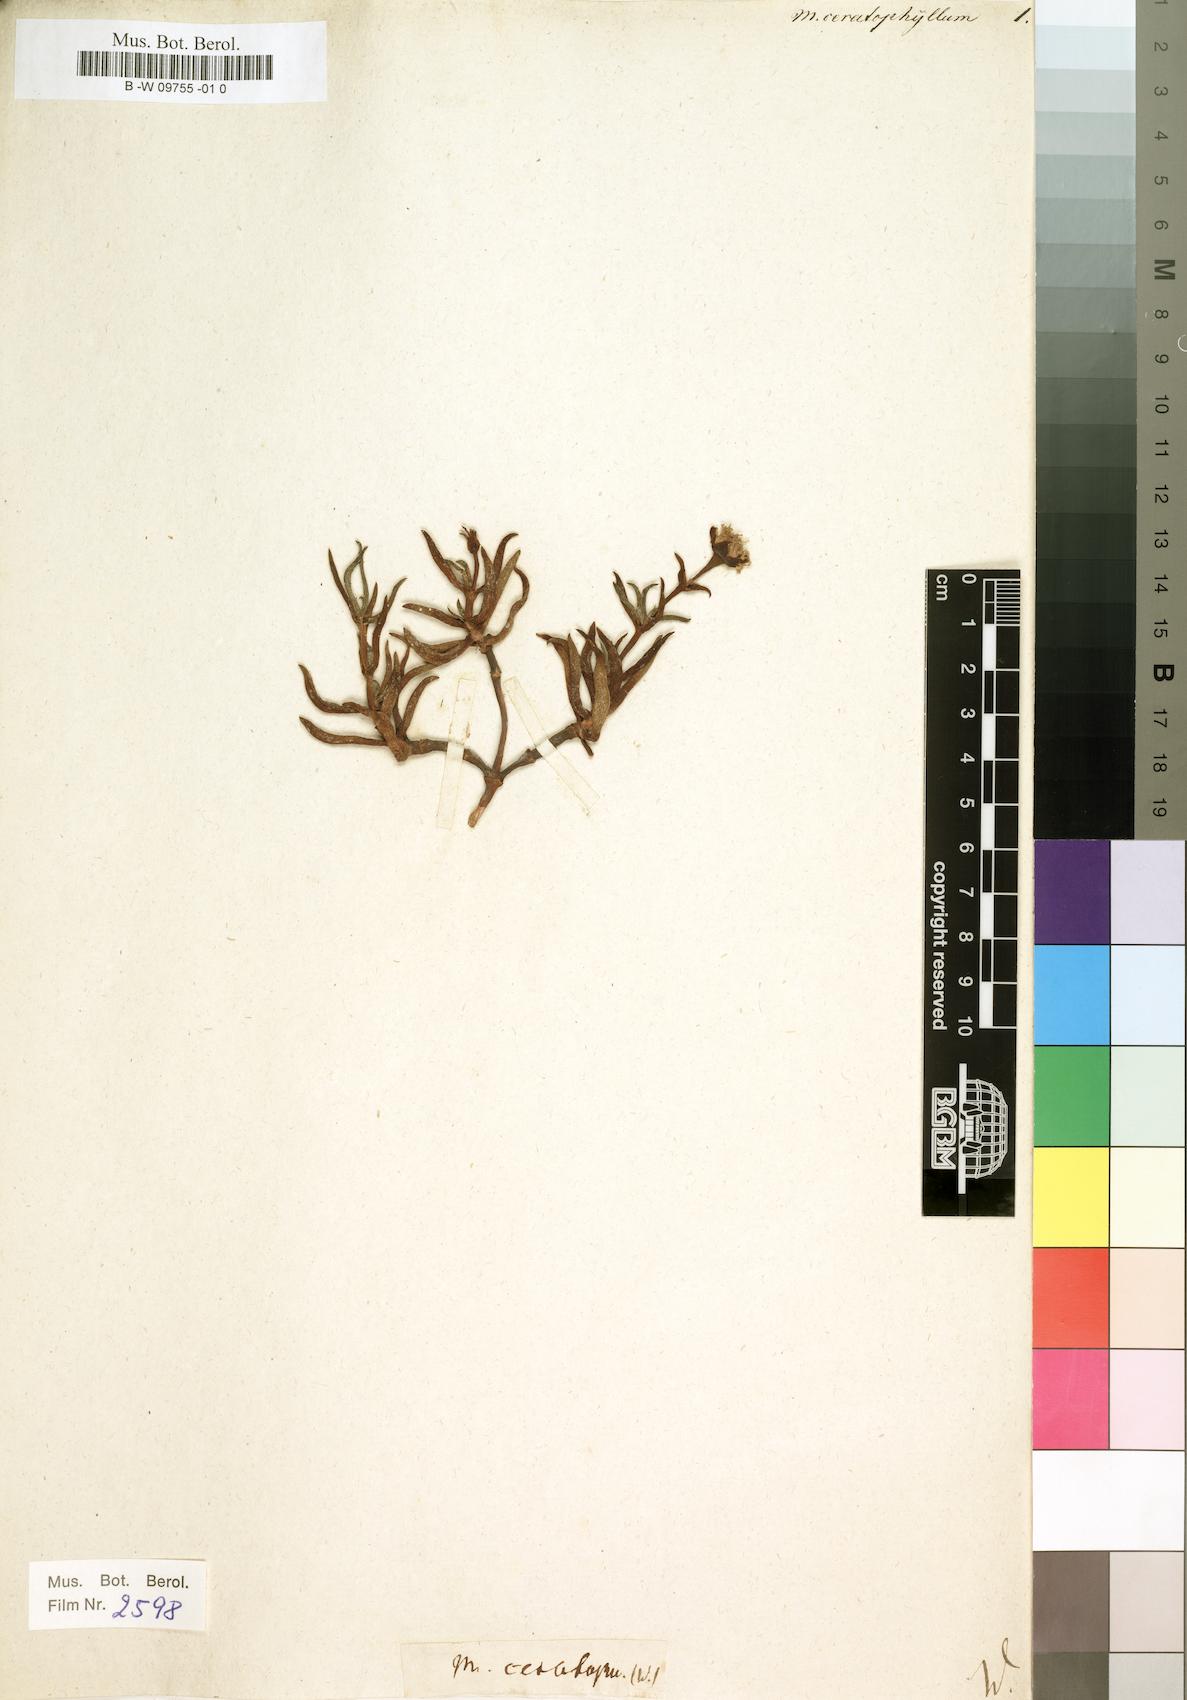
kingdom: Plantae
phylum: Tracheophyta
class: Magnoliopsida
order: Caryophyllales
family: Aizoaceae
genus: Lampranthus
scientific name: Lampranthus aduncus
